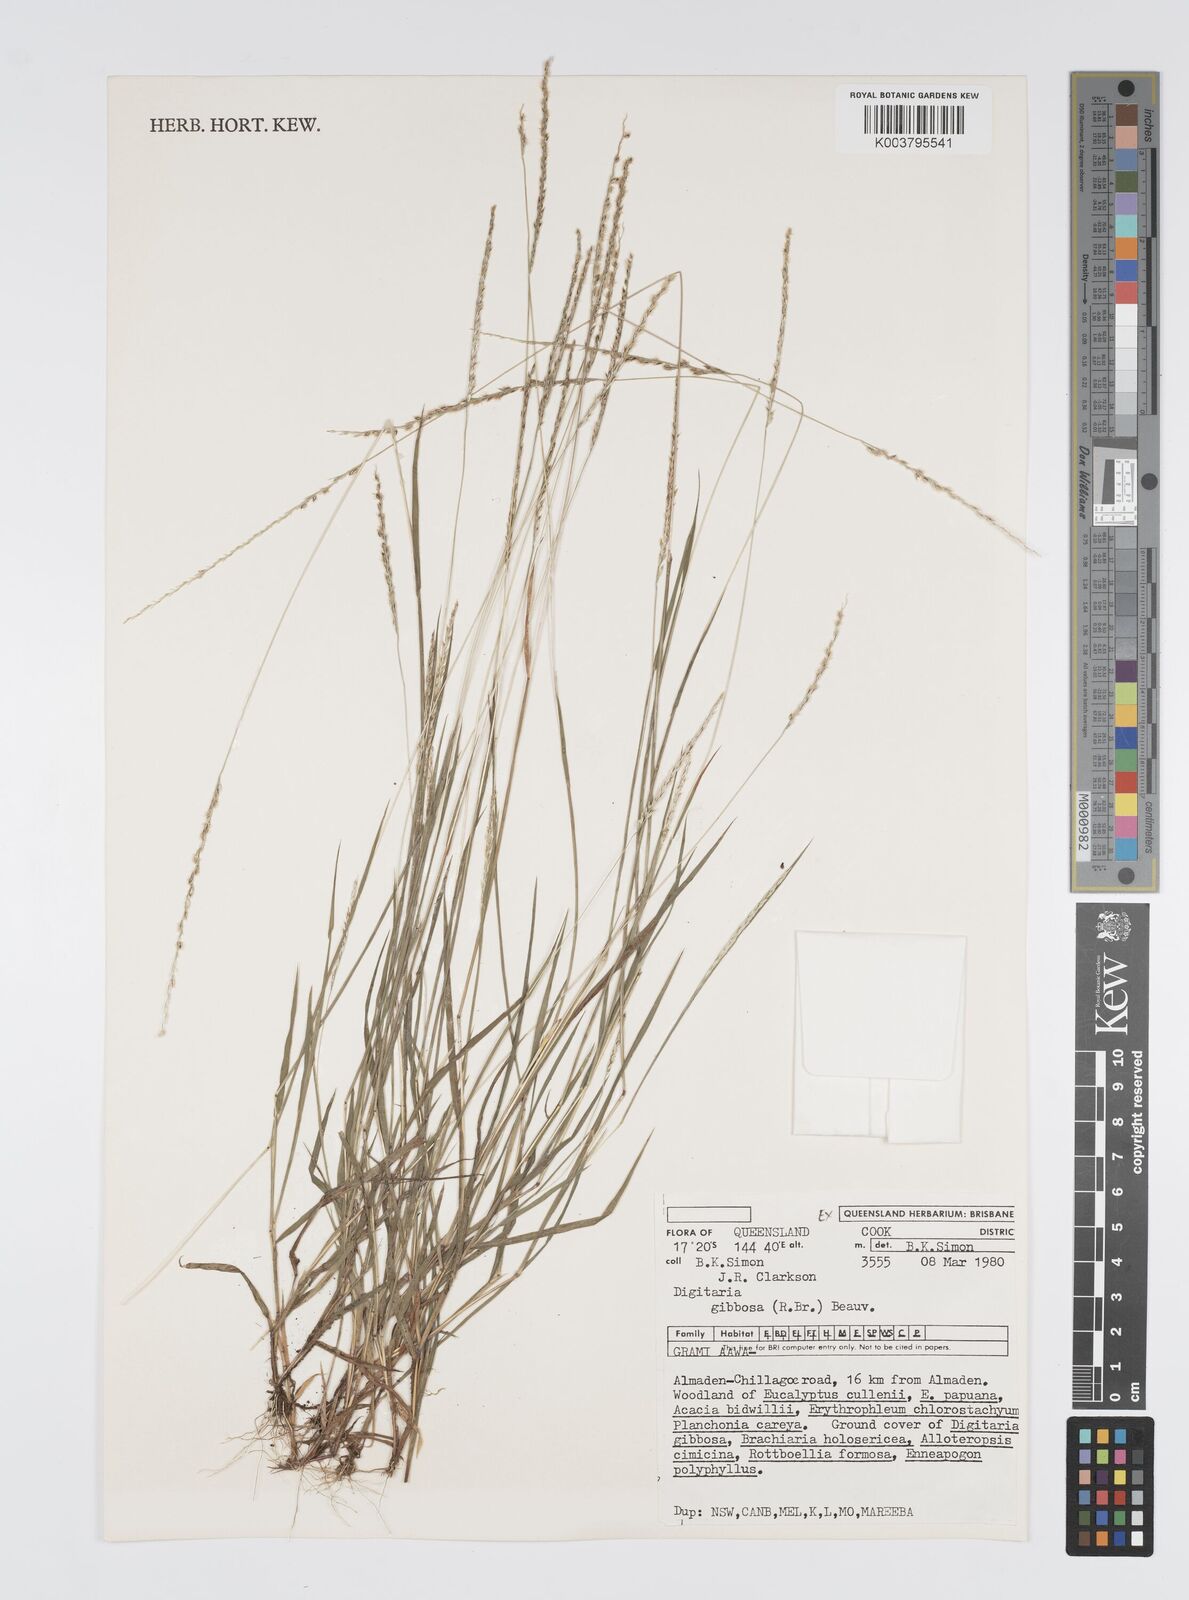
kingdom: Plantae
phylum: Tracheophyta
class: Liliopsida
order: Poales
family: Poaceae
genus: Digitaria
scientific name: Digitaria gibbosa
